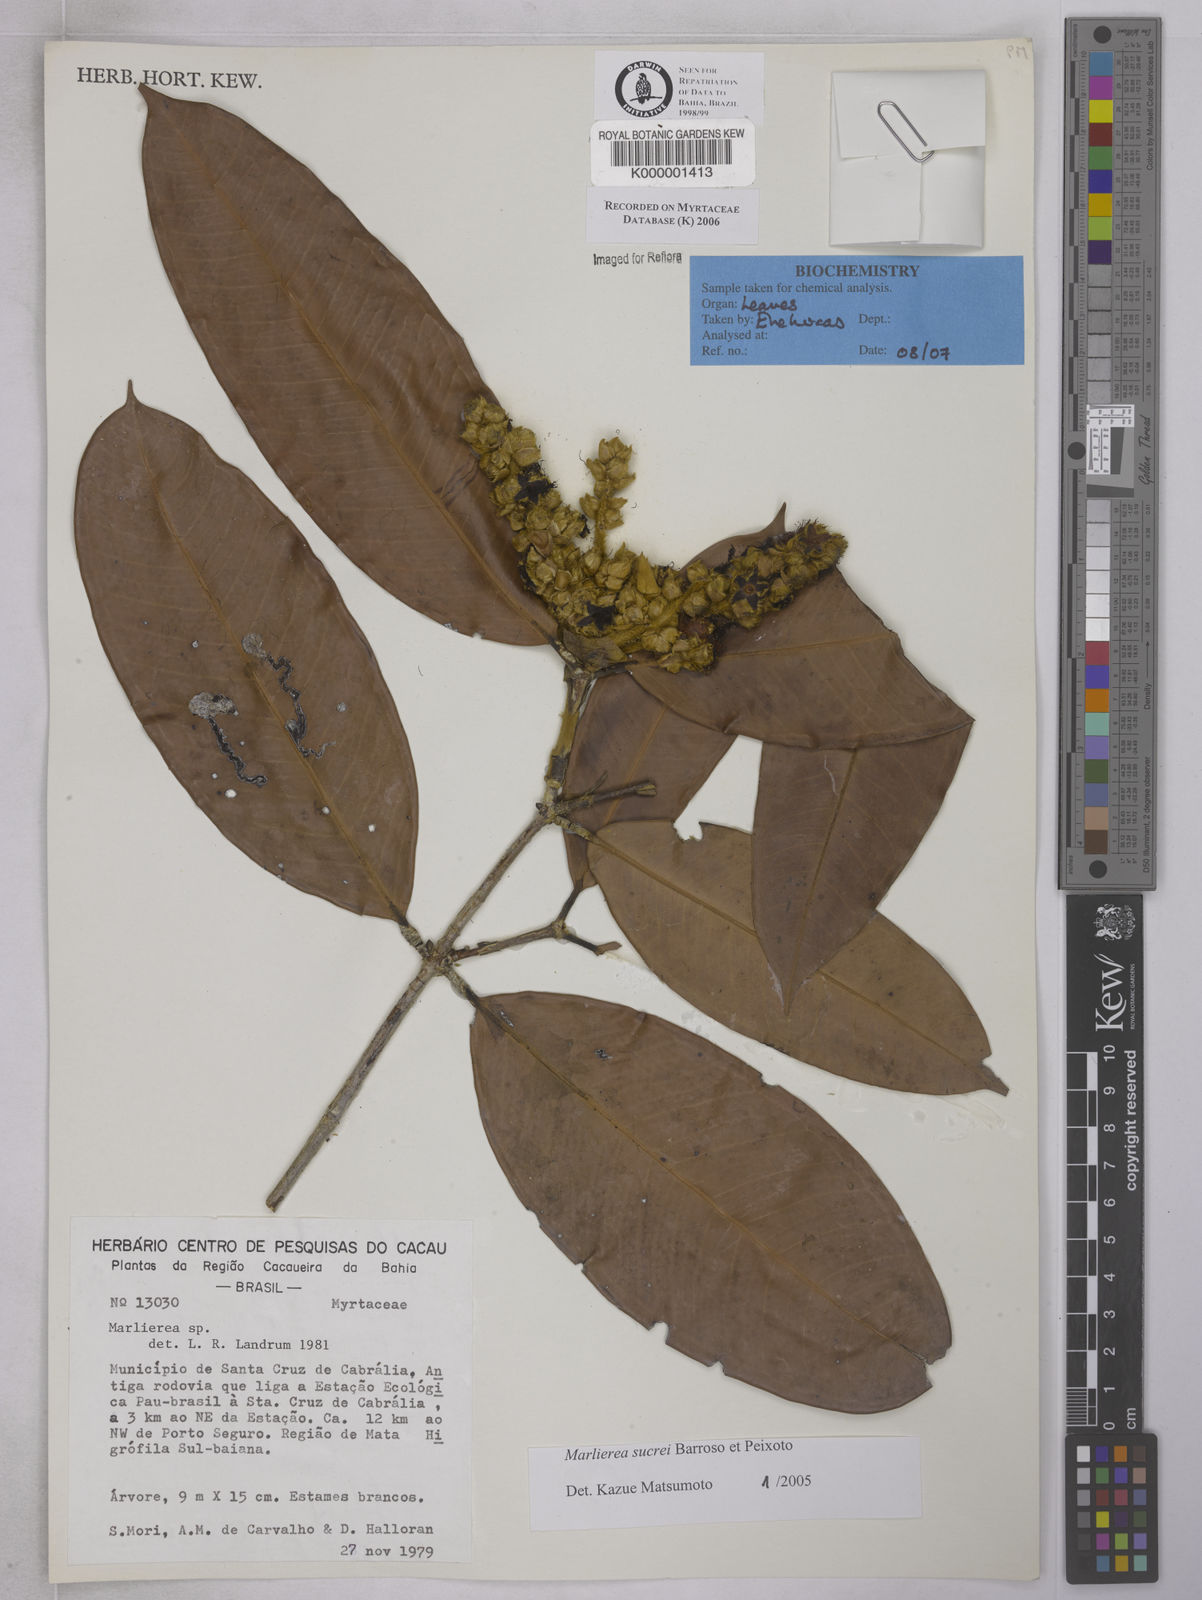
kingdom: Plantae
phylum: Tracheophyta
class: Magnoliopsida
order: Myrtales
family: Myrtaceae
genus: Marlierea
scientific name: Marlierea
